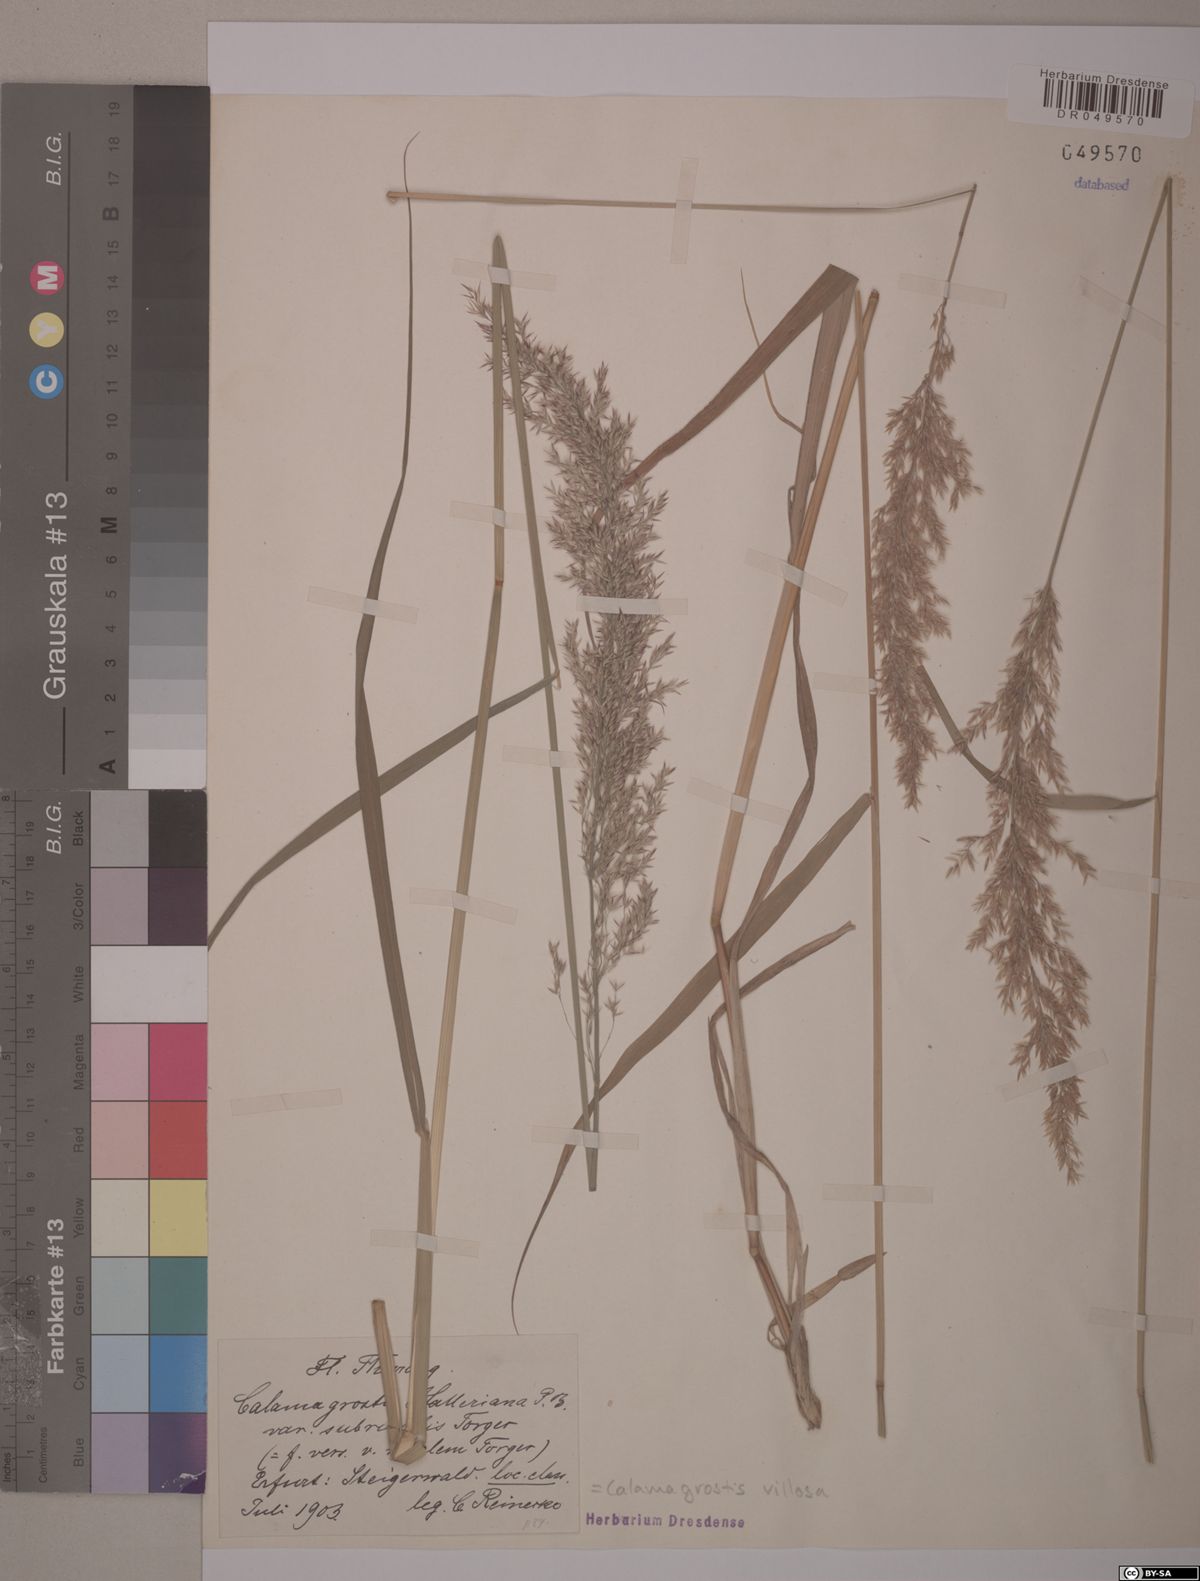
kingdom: Plantae
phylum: Tracheophyta
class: Liliopsida
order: Poales
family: Poaceae
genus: Calamagrostis
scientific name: Calamagrostis villosa
